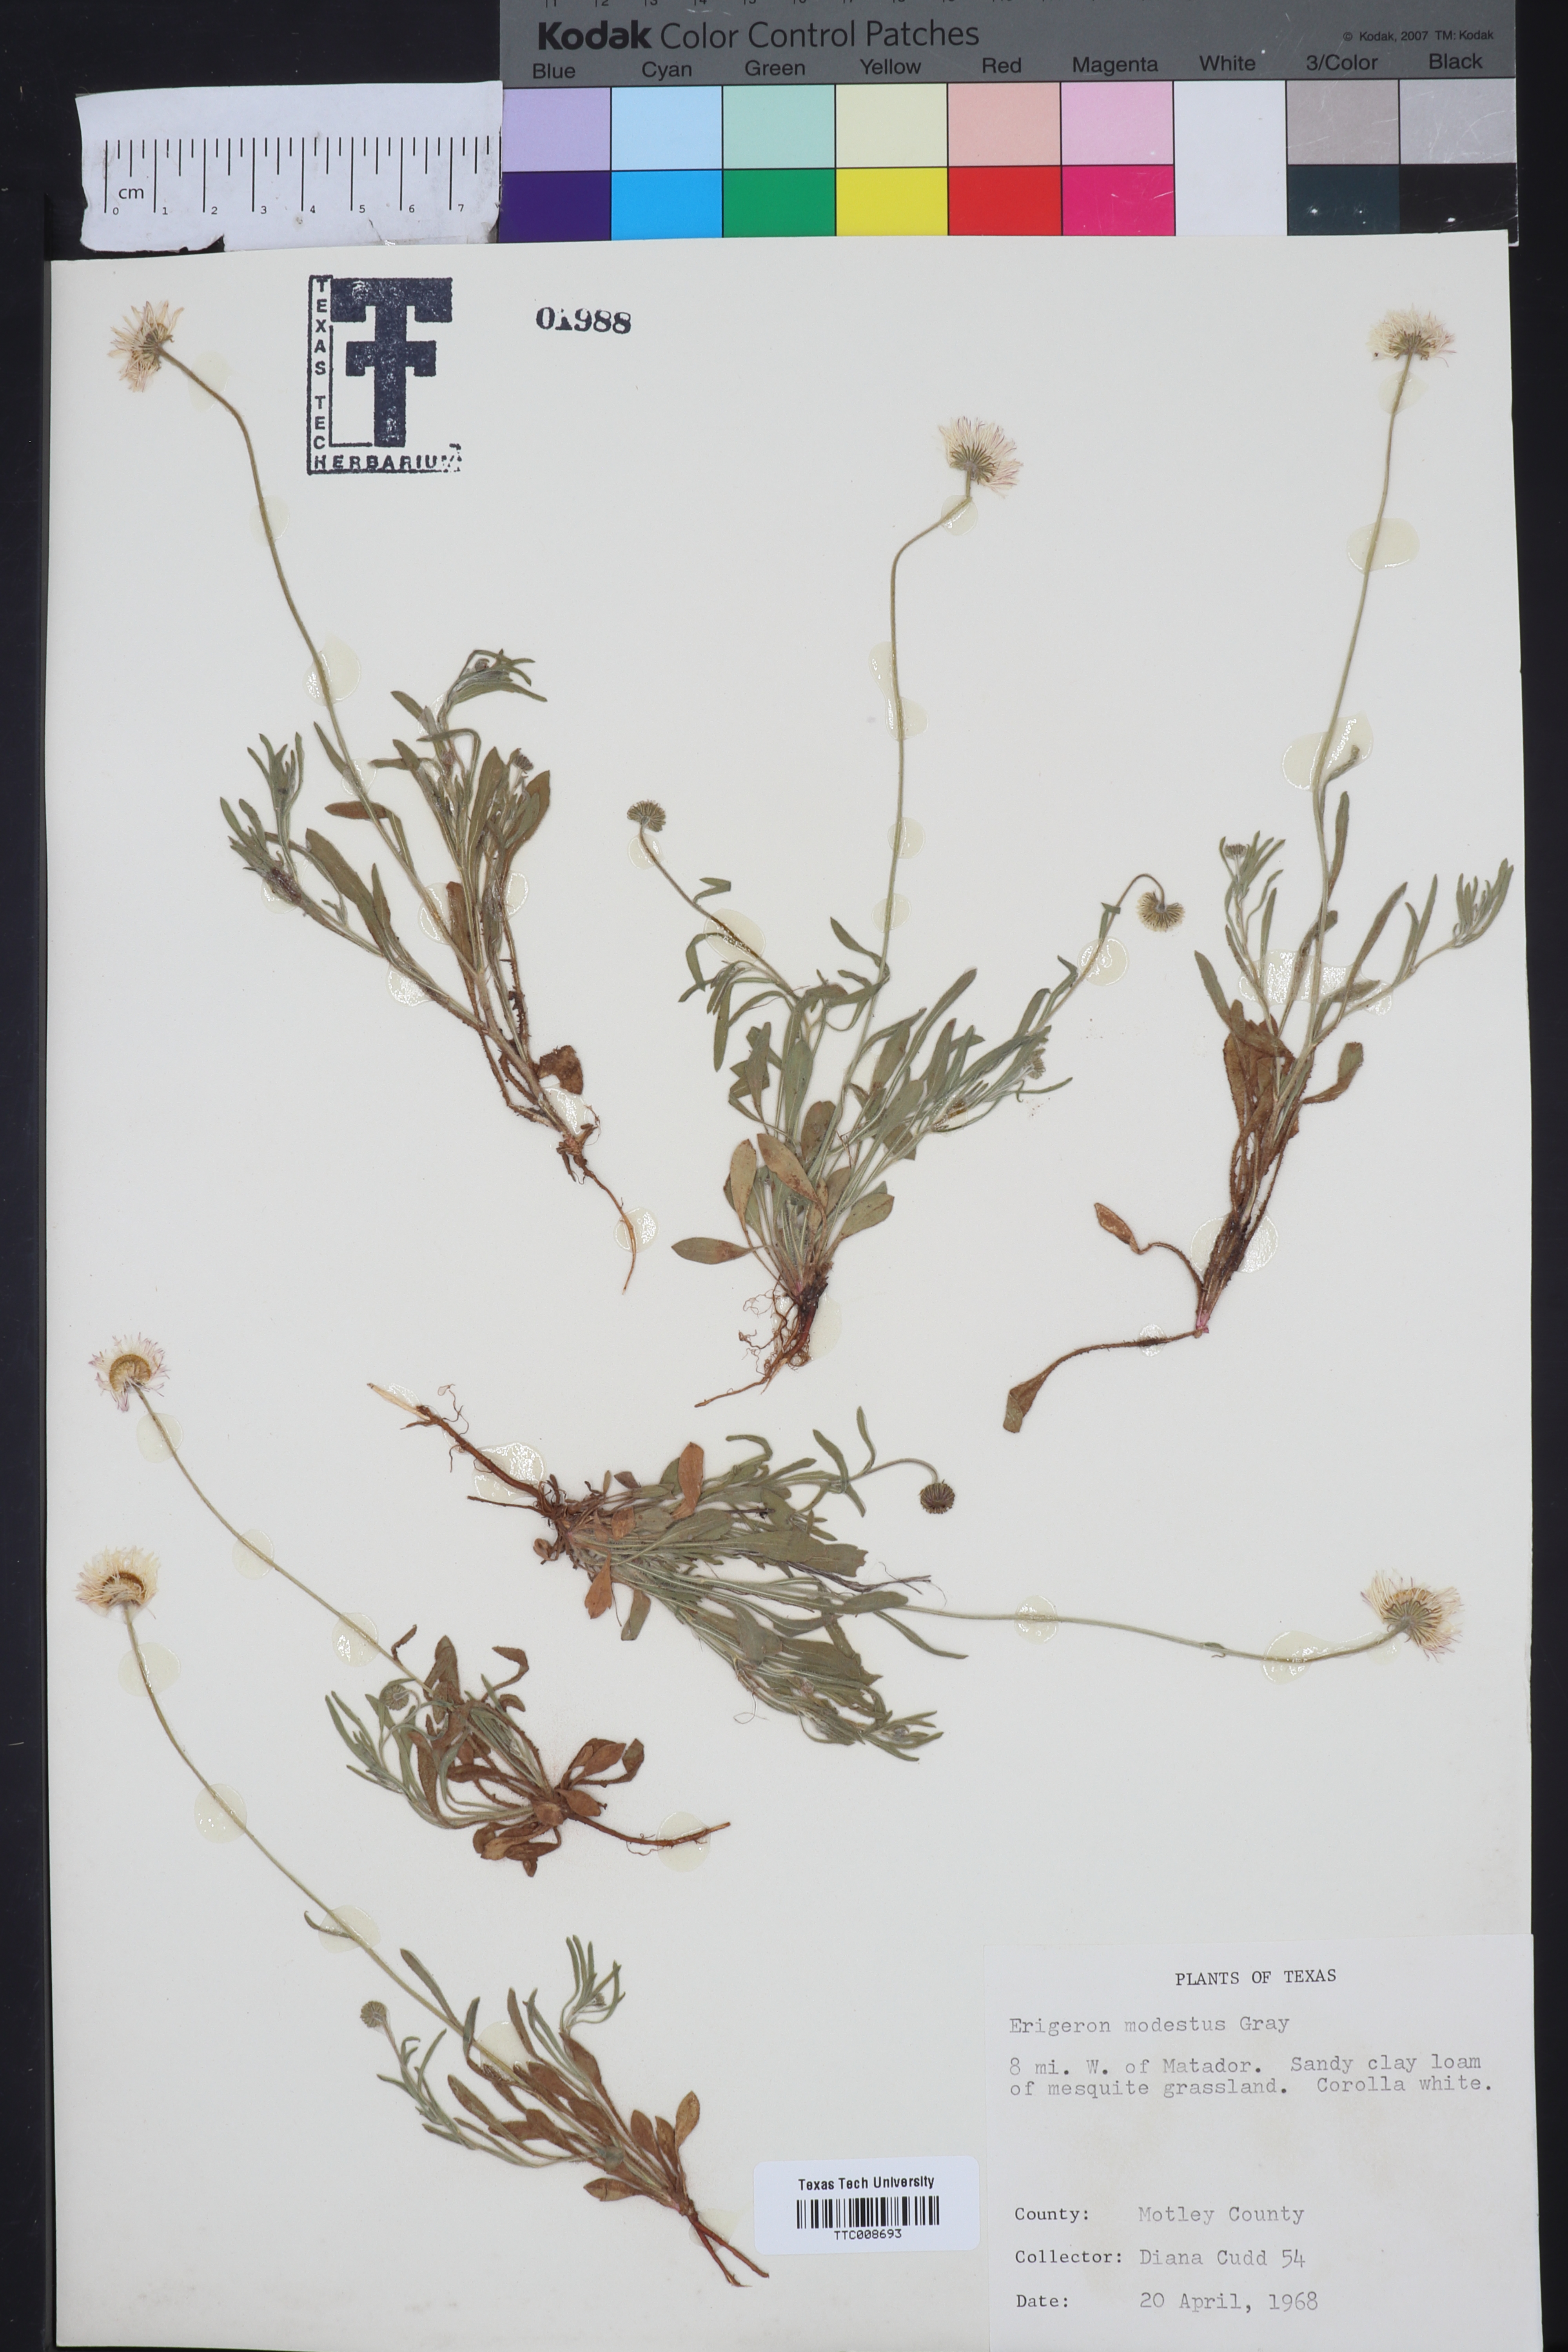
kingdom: Plantae
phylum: Tracheophyta
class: Magnoliopsida
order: Asterales
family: Asteraceae
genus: Erigeron
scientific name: Erigeron modestus
